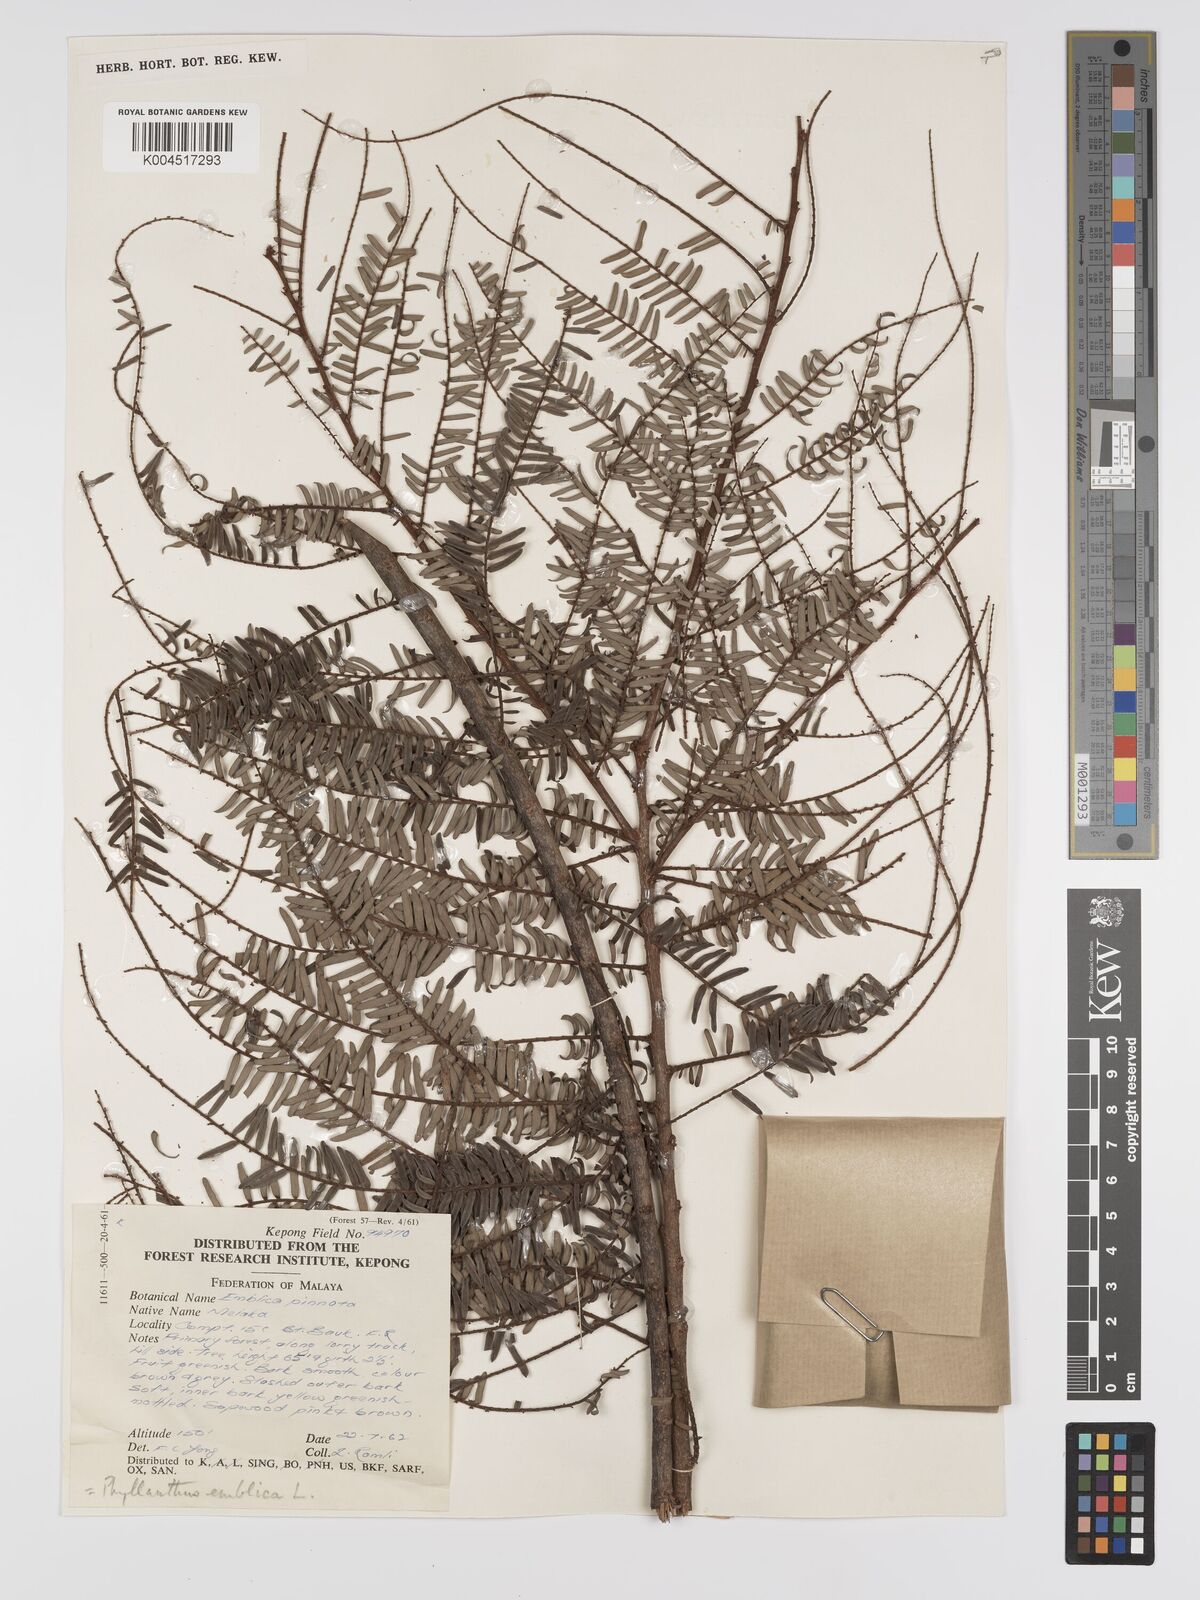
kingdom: Plantae
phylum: Tracheophyta
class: Magnoliopsida
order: Malpighiales
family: Phyllanthaceae
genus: Phyllanthus
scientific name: Phyllanthus emblica
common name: Indian gooseberry
